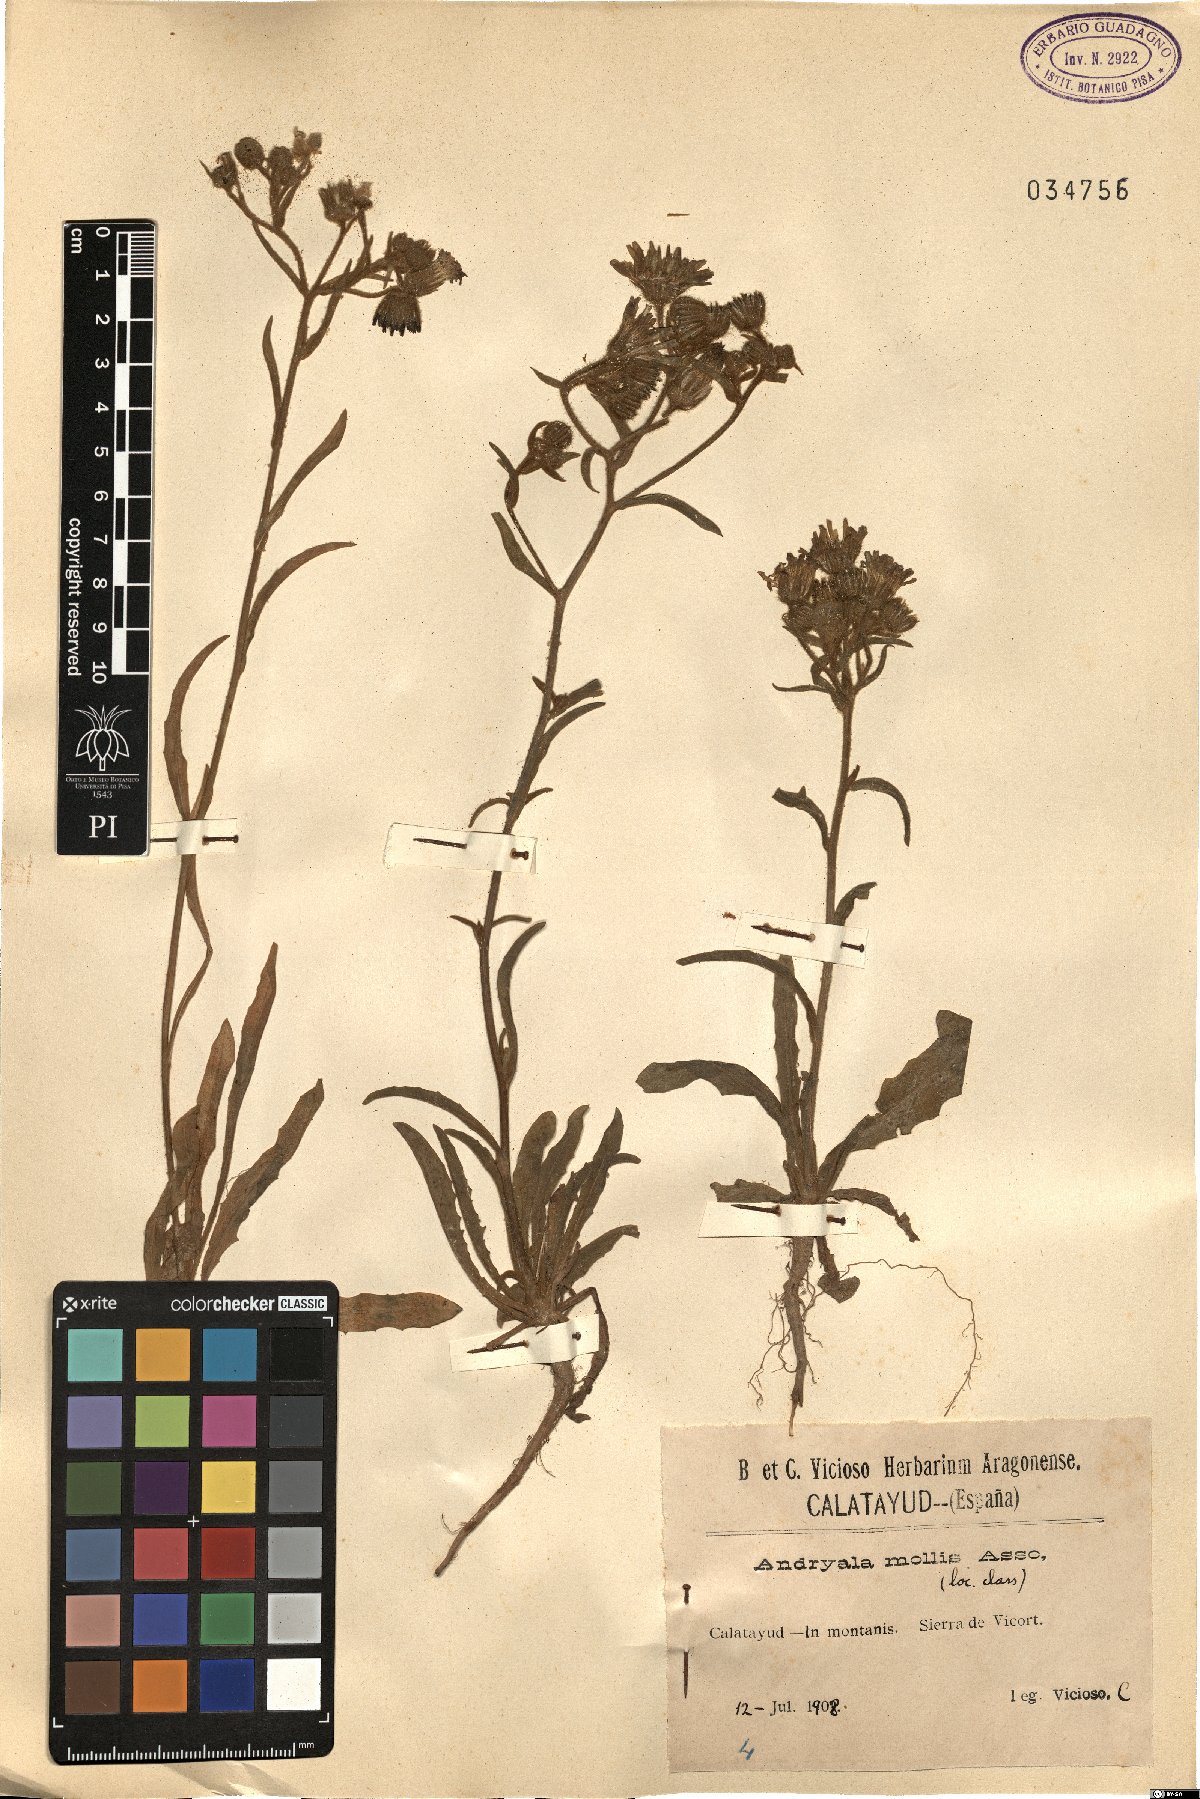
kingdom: Plantae
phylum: Tracheophyta
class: Magnoliopsida
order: Asterales
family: Asteraceae
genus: Andryala
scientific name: Andryala integrifolia
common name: Common andryala
